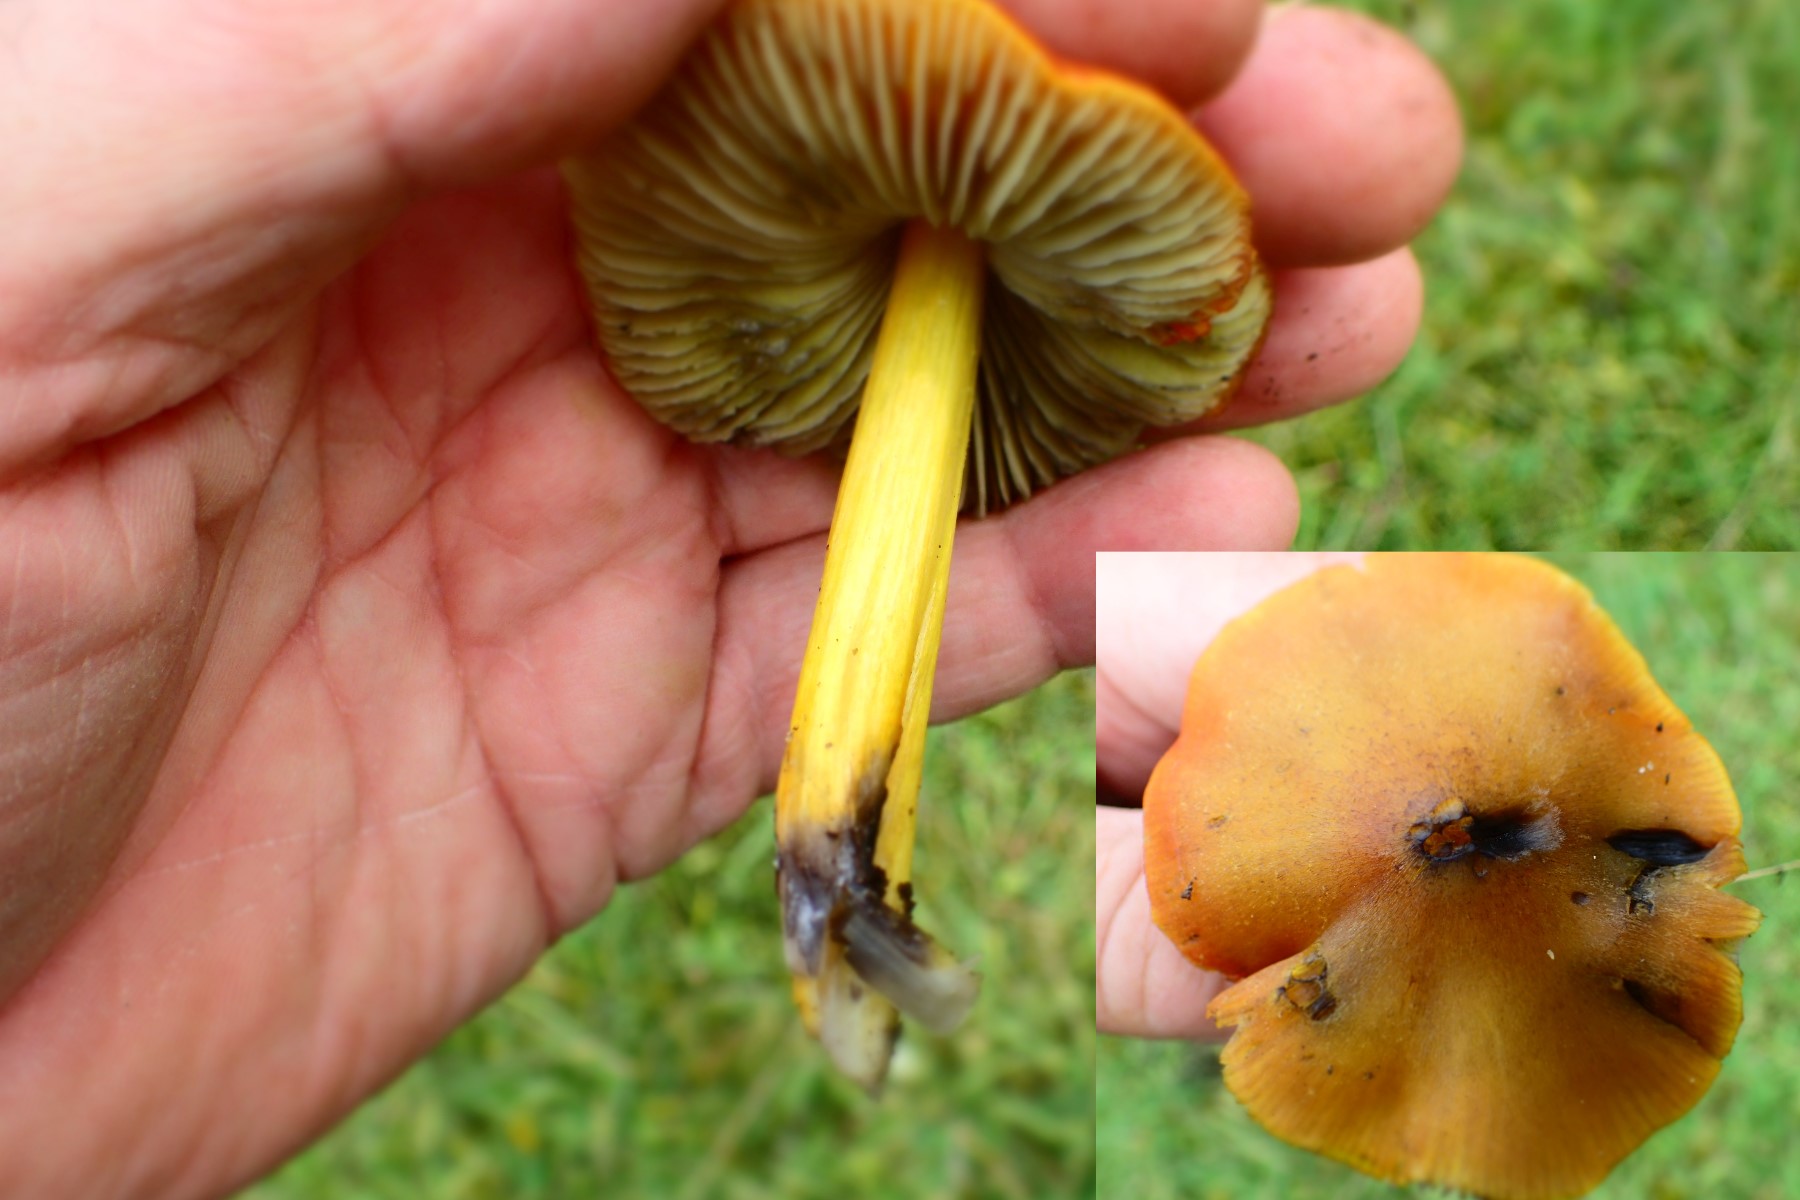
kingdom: Fungi
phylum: Basidiomycota
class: Agaricomycetes
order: Agaricales
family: Hygrophoraceae
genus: Hygrocybe
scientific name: Hygrocybe conica
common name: kegle-vokshat
